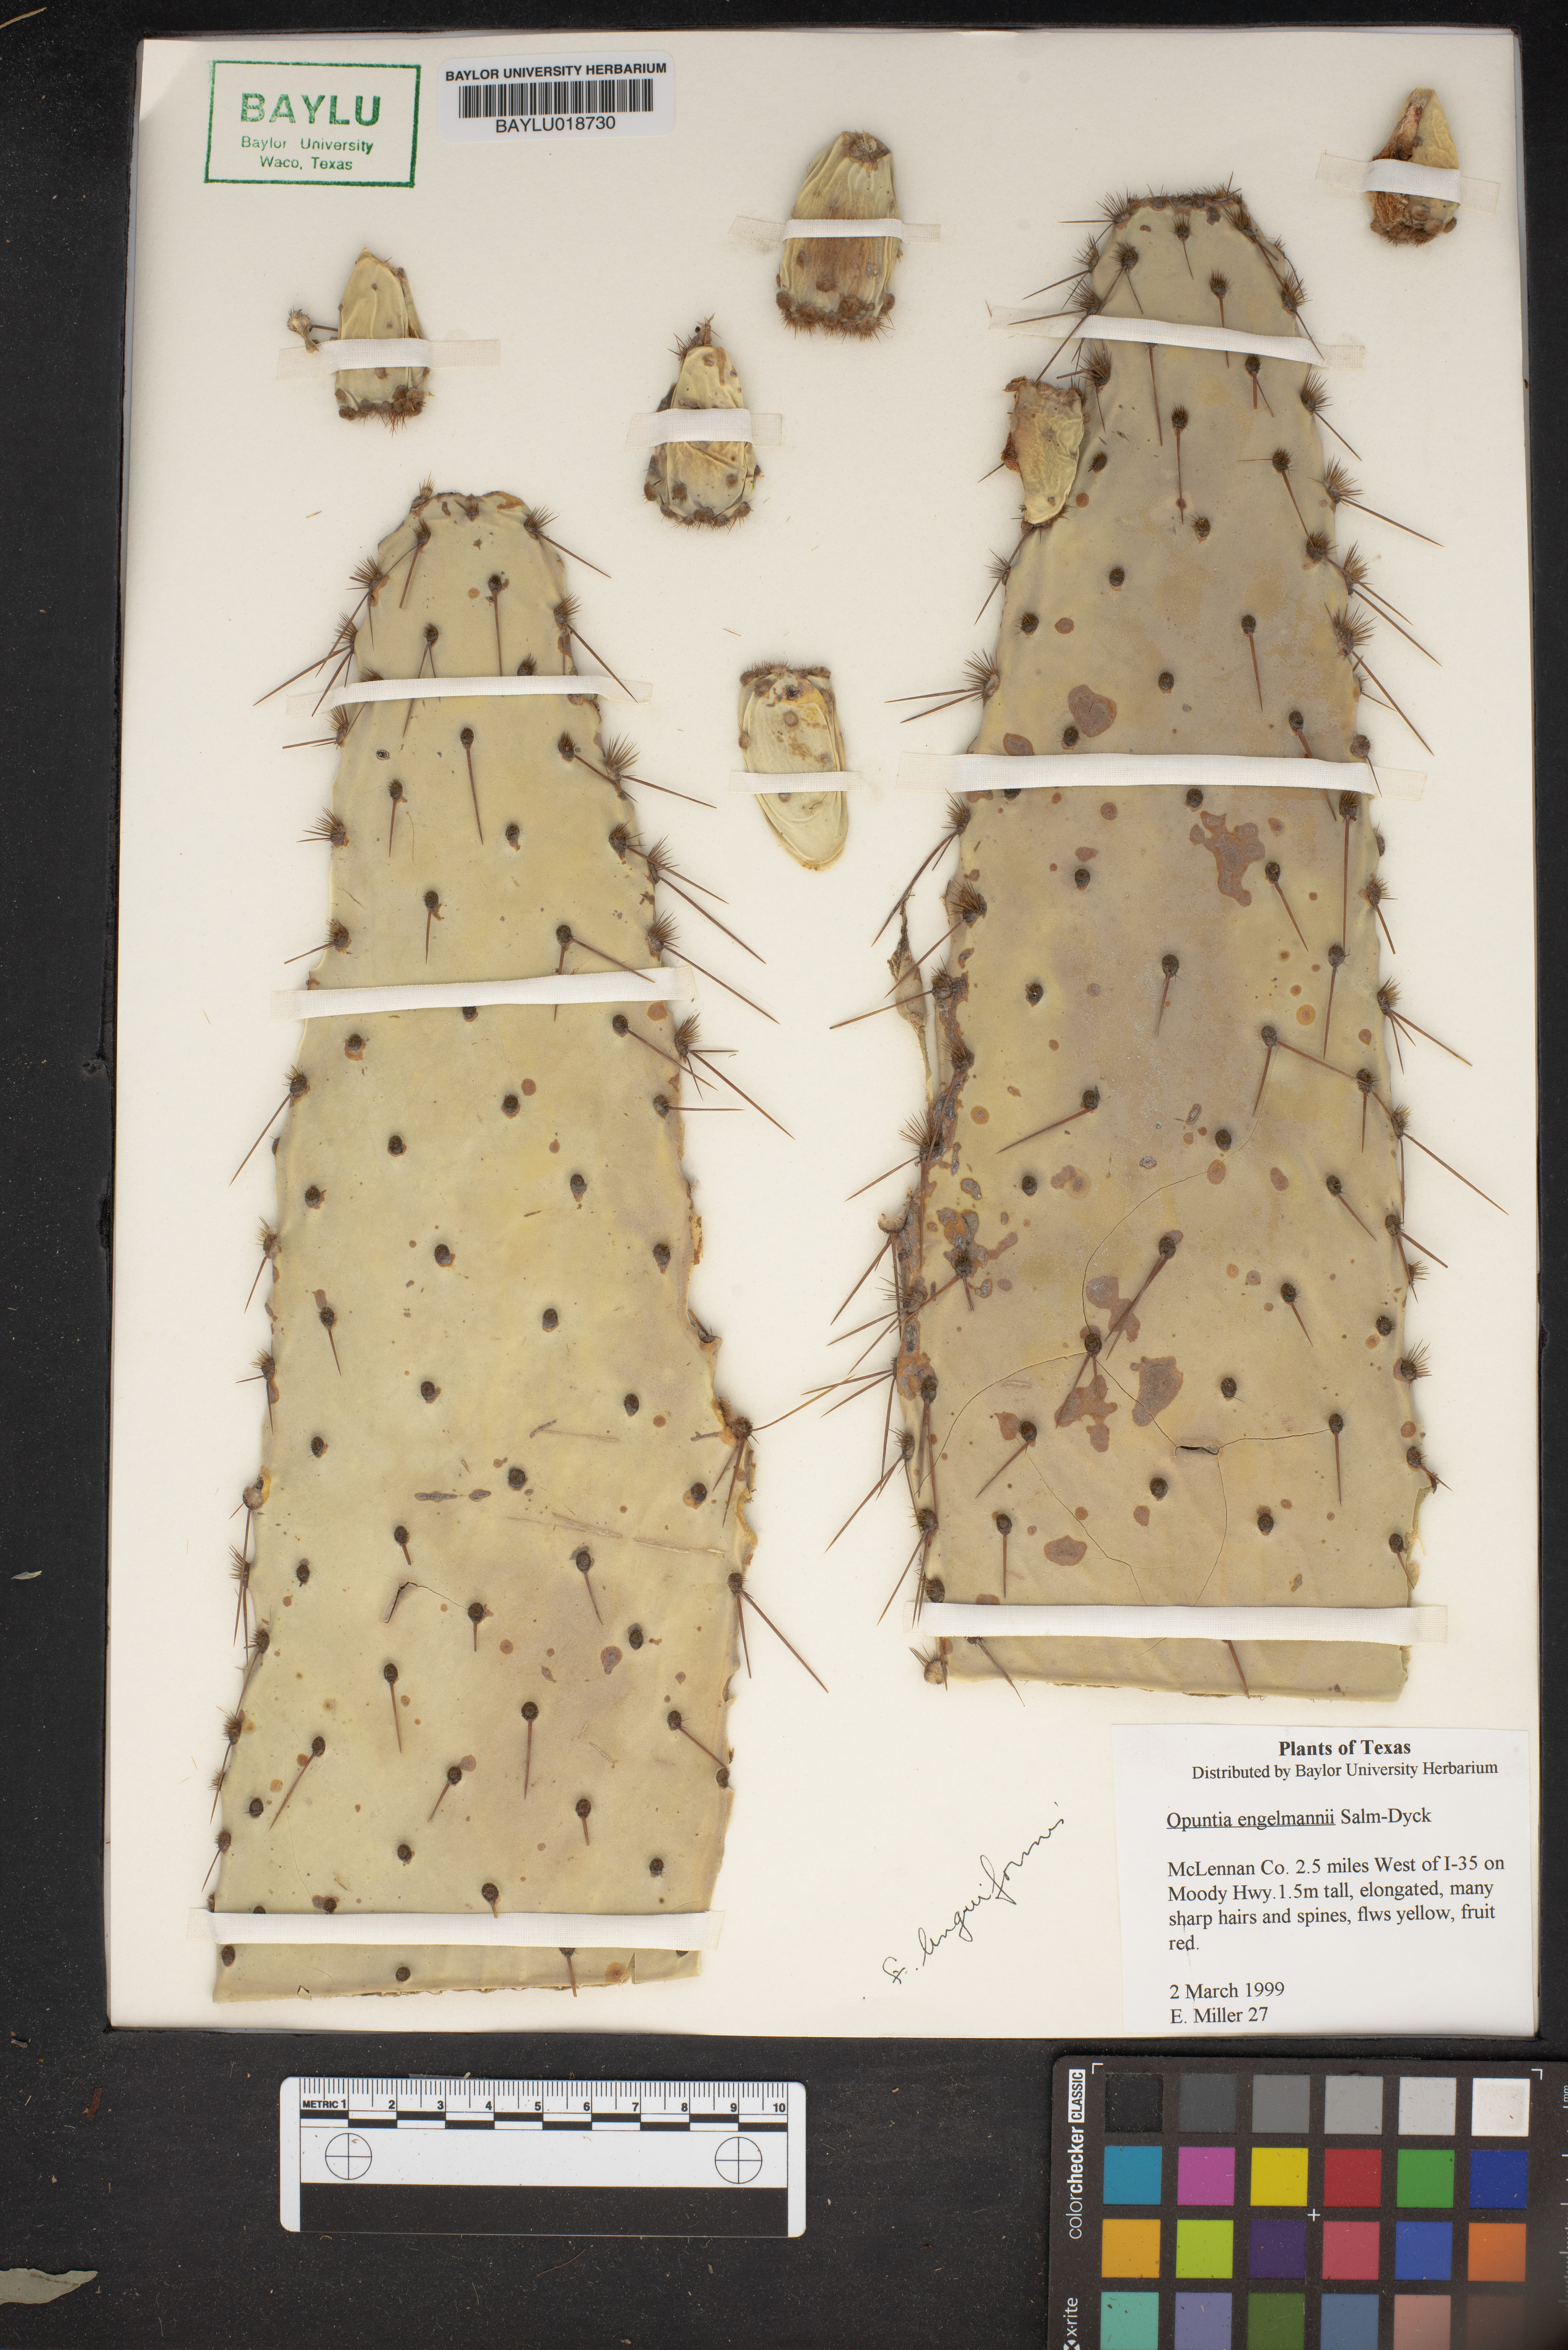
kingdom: Plantae
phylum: Tracheophyta
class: Magnoliopsida
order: Caryophyllales
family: Cactaceae
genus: Opuntia
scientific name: Opuntia engelmannii
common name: Cactus-apple
